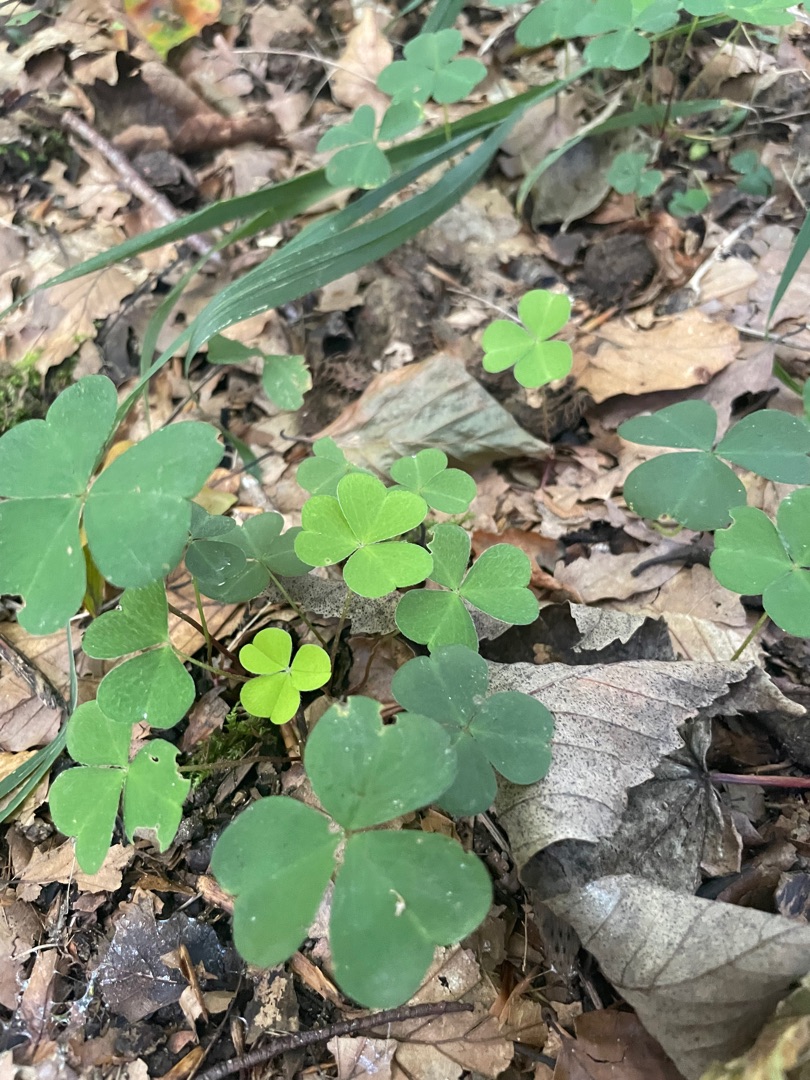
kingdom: Plantae
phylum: Tracheophyta
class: Magnoliopsida
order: Oxalidales
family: Oxalidaceae
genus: Oxalis
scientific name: Oxalis acetosella
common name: Skovsyre
